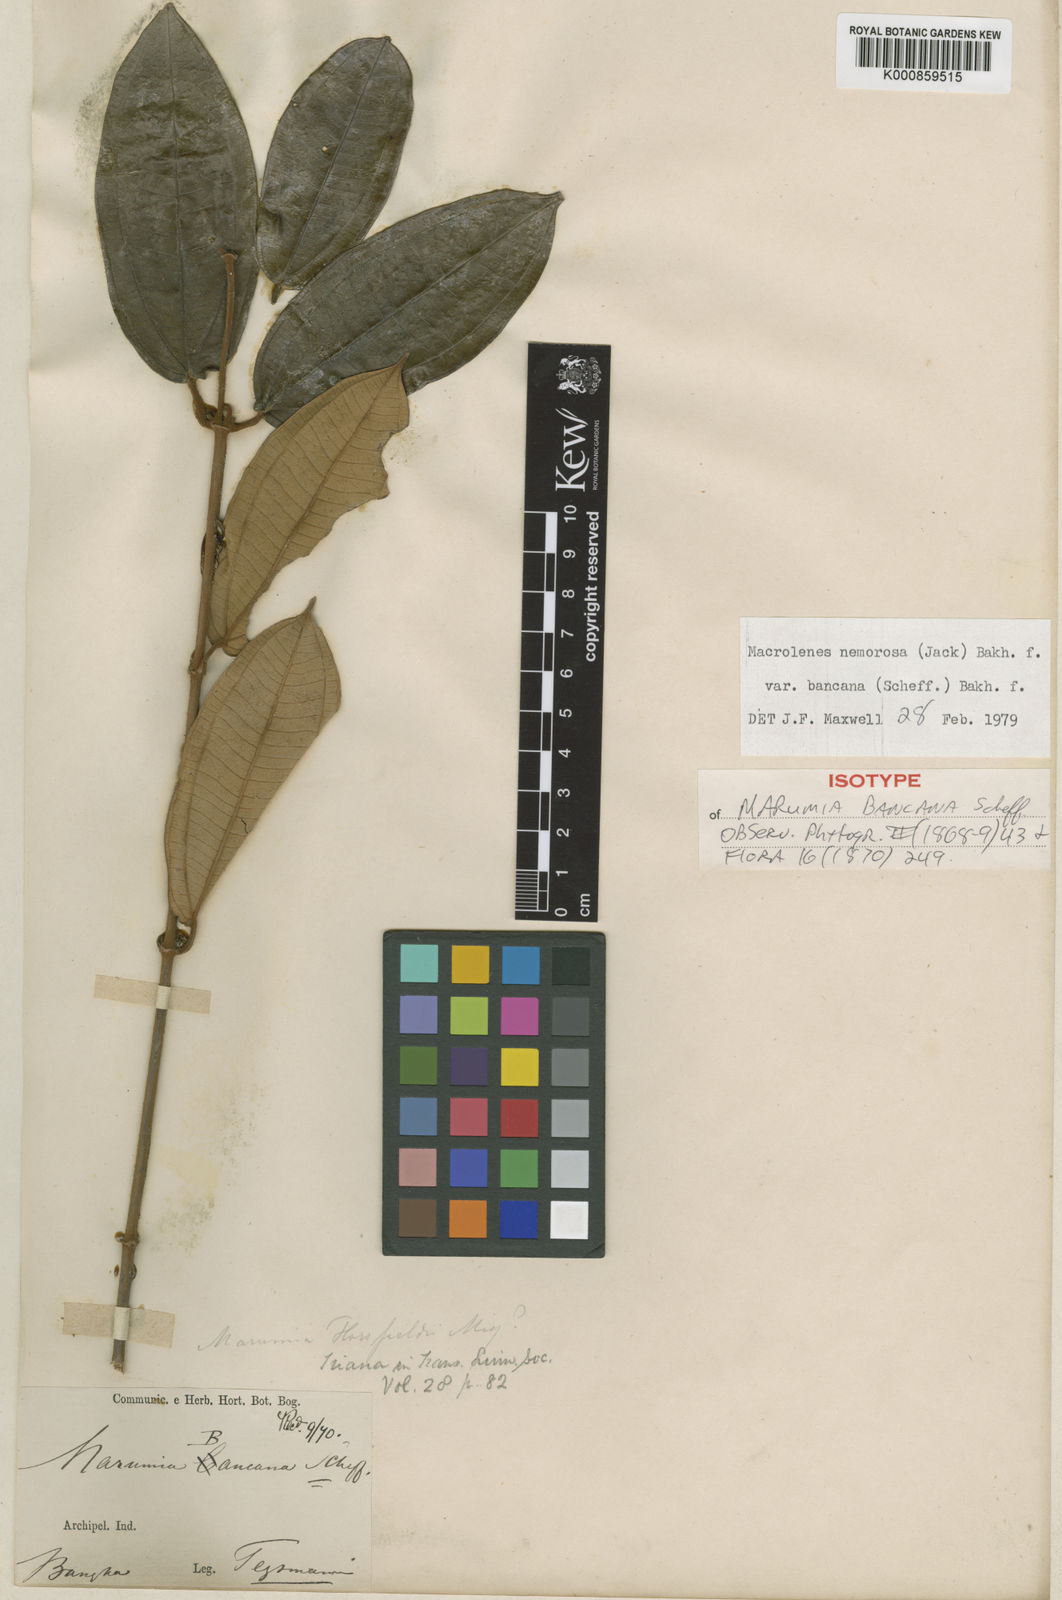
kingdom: Plantae
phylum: Tracheophyta
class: Magnoliopsida
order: Myrtales
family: Melastomataceae
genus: Macrolenes
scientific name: Macrolenes nemorosa
